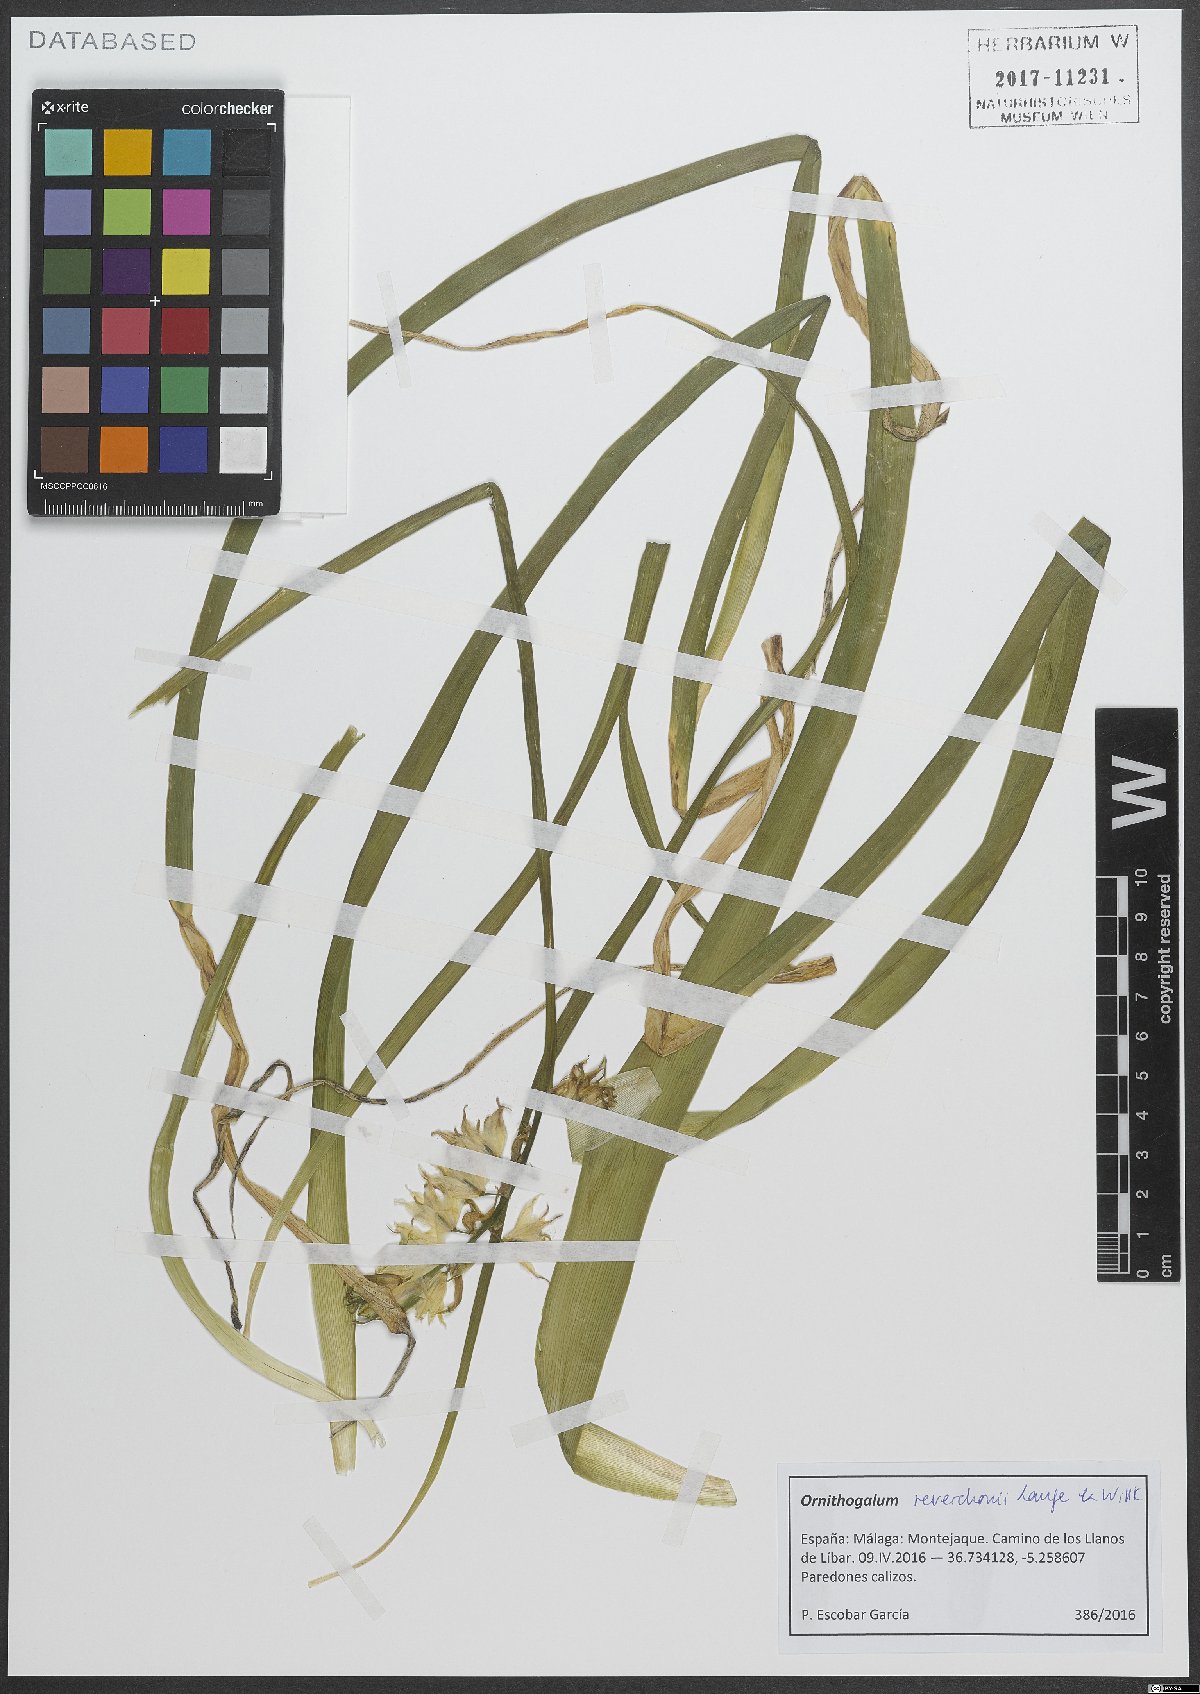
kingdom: Plantae
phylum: Tracheophyta
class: Liliopsida
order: Asparagales
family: Asparagaceae
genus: Ornithogalum
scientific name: Ornithogalum reverchonii
